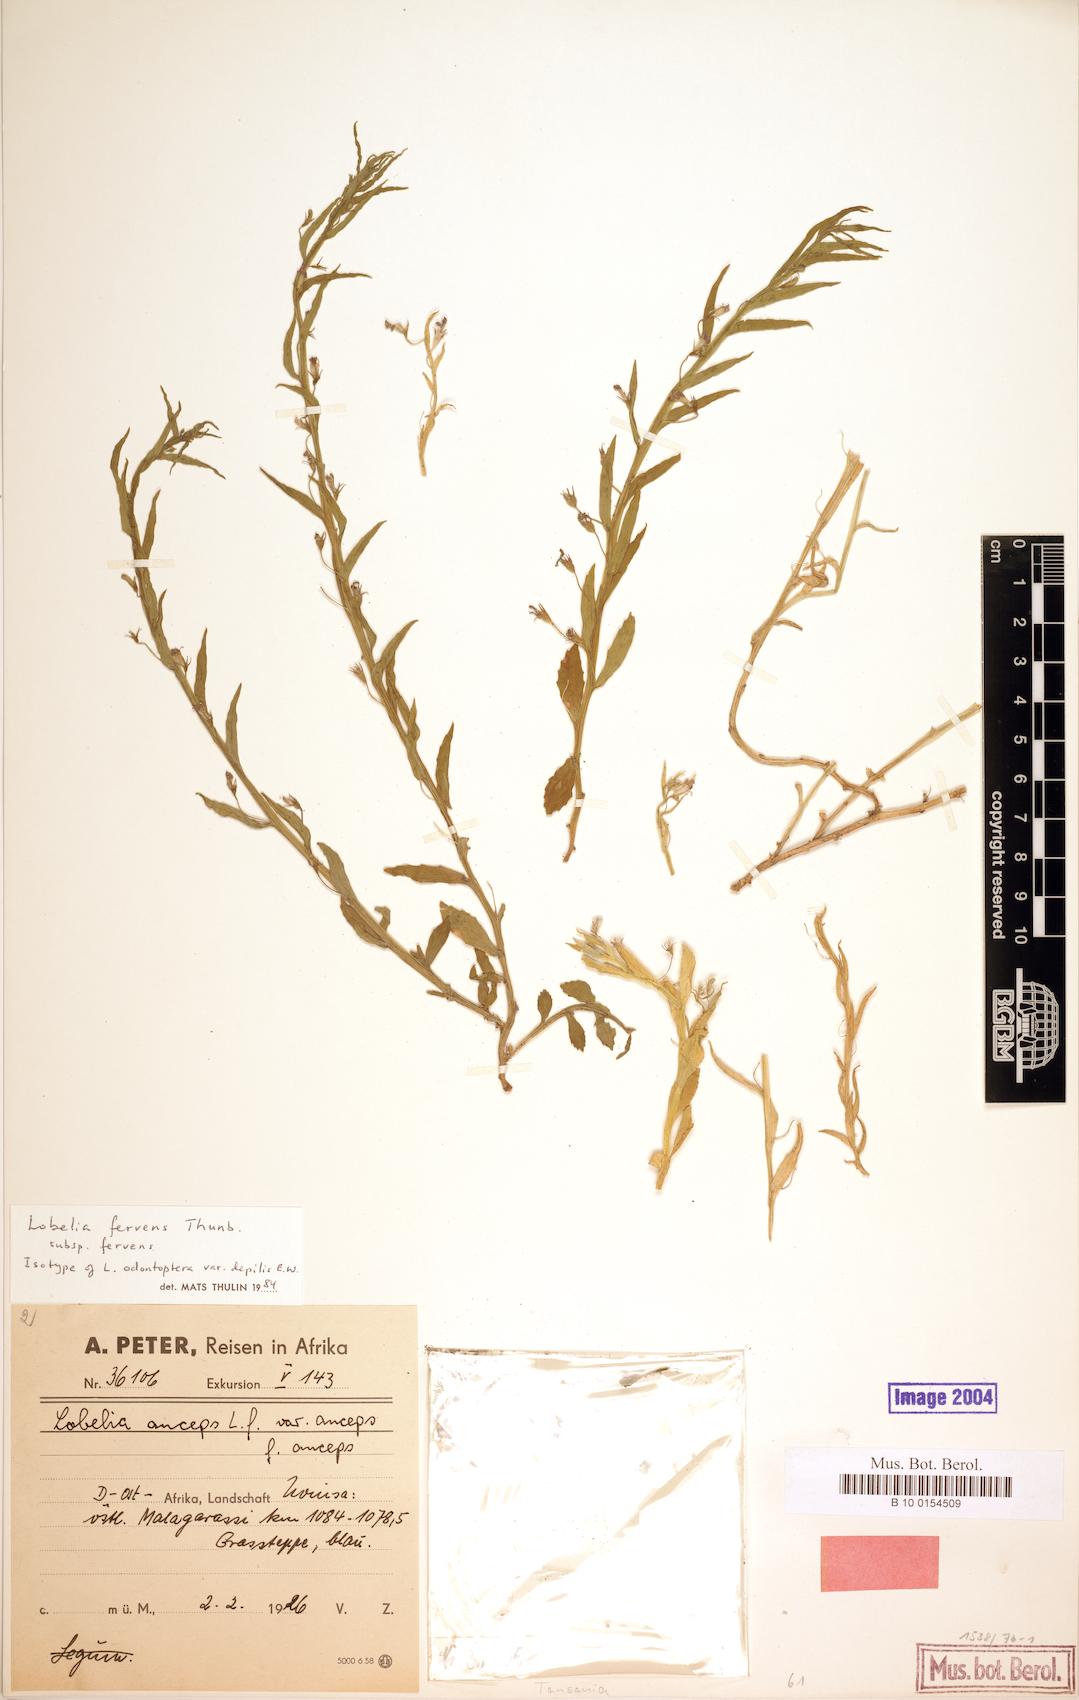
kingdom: Plantae
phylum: Tracheophyta
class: Magnoliopsida
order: Asterales
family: Campanulaceae
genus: Lobelia
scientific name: Lobelia fervens
